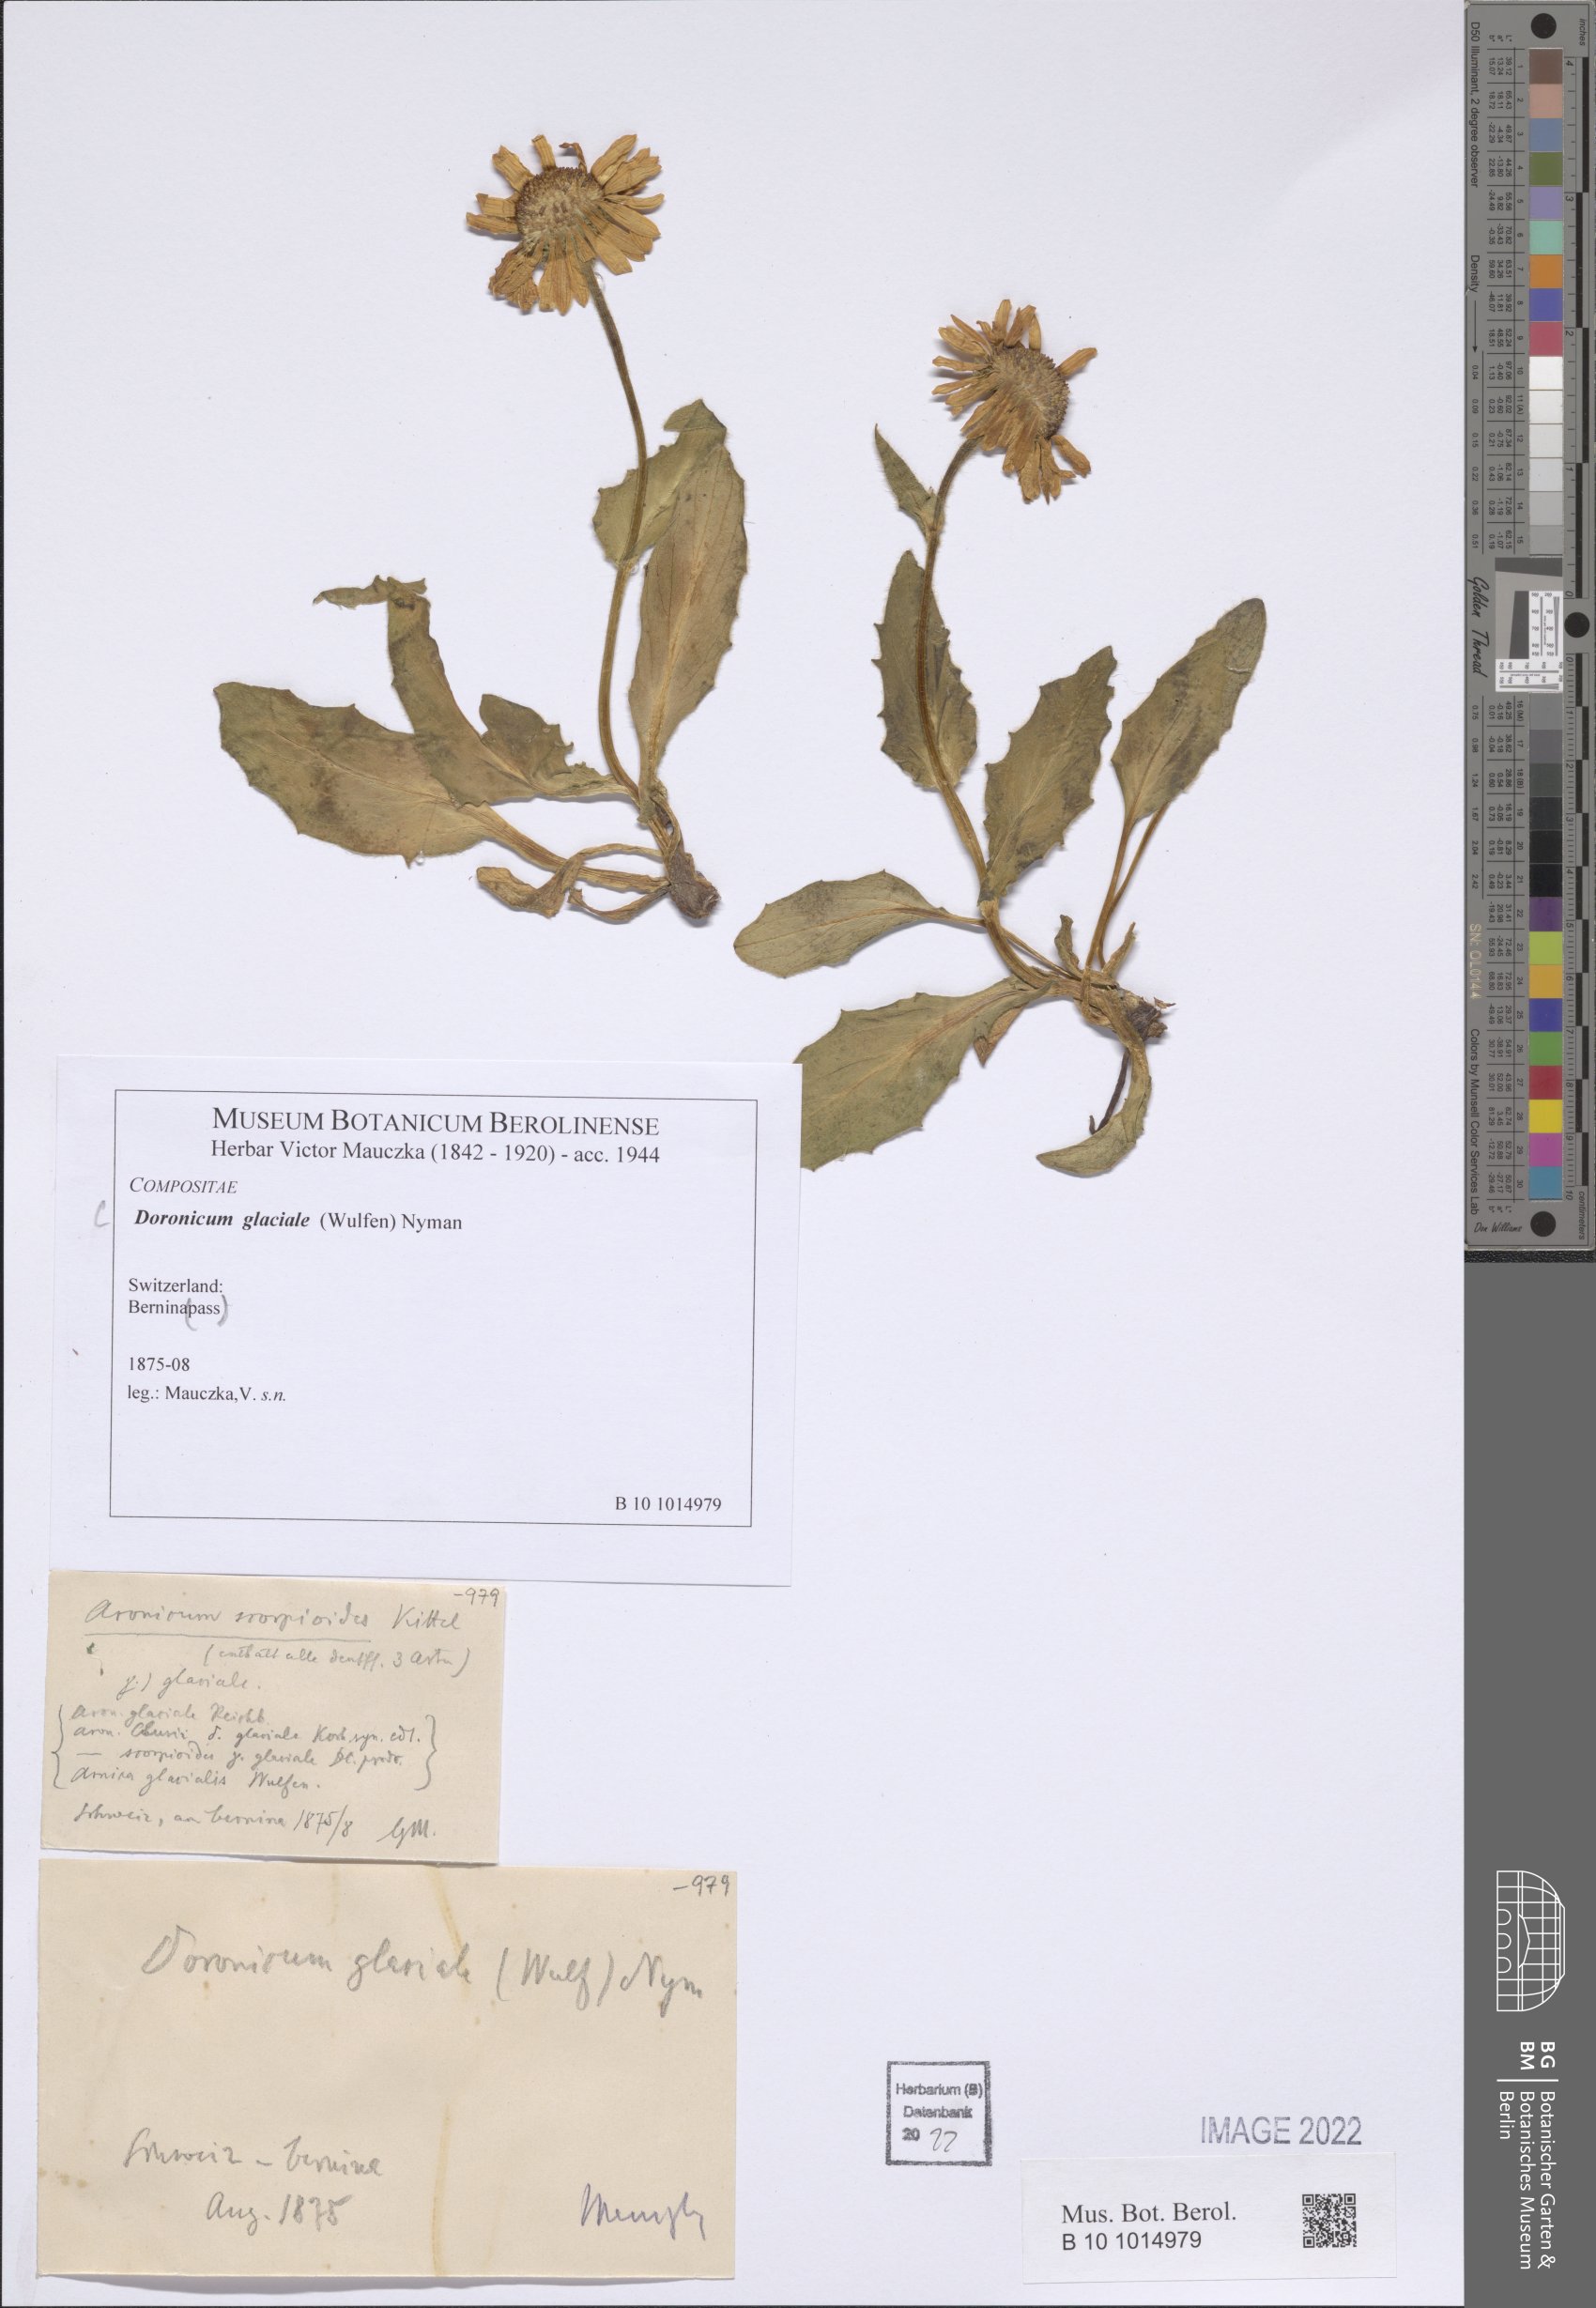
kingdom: Plantae
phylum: Tracheophyta
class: Magnoliopsida
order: Asterales
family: Asteraceae
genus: Doronicum
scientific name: Doronicum glaciale
